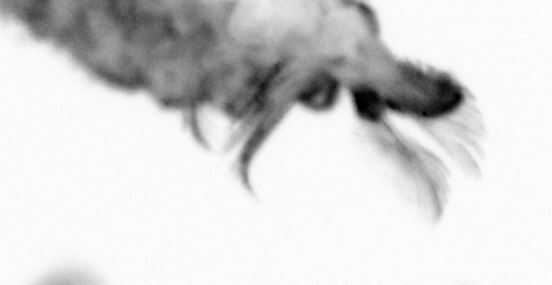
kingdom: Animalia
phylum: Annelida
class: Polychaeta
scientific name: Polychaeta
